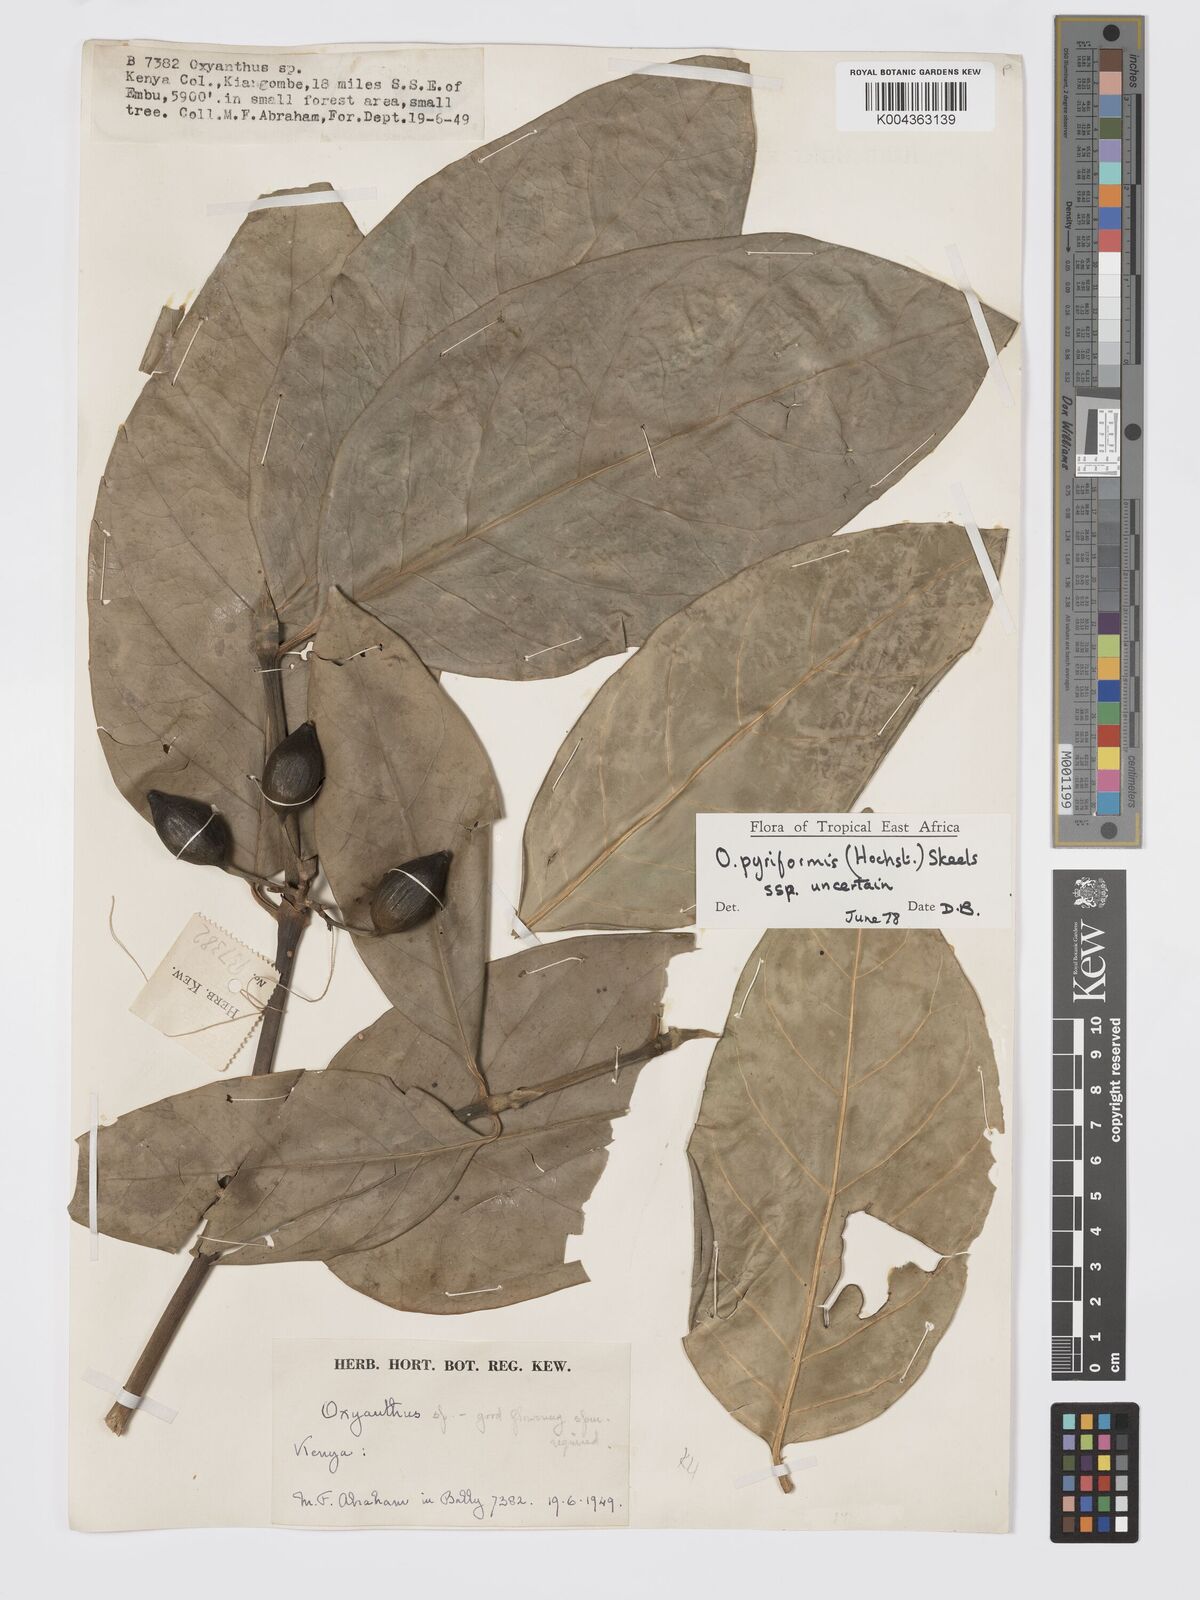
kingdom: Plantae
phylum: Tracheophyta
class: Magnoliopsida
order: Gentianales
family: Rubiaceae
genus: Oxyanthus
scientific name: Oxyanthus pyriformis
